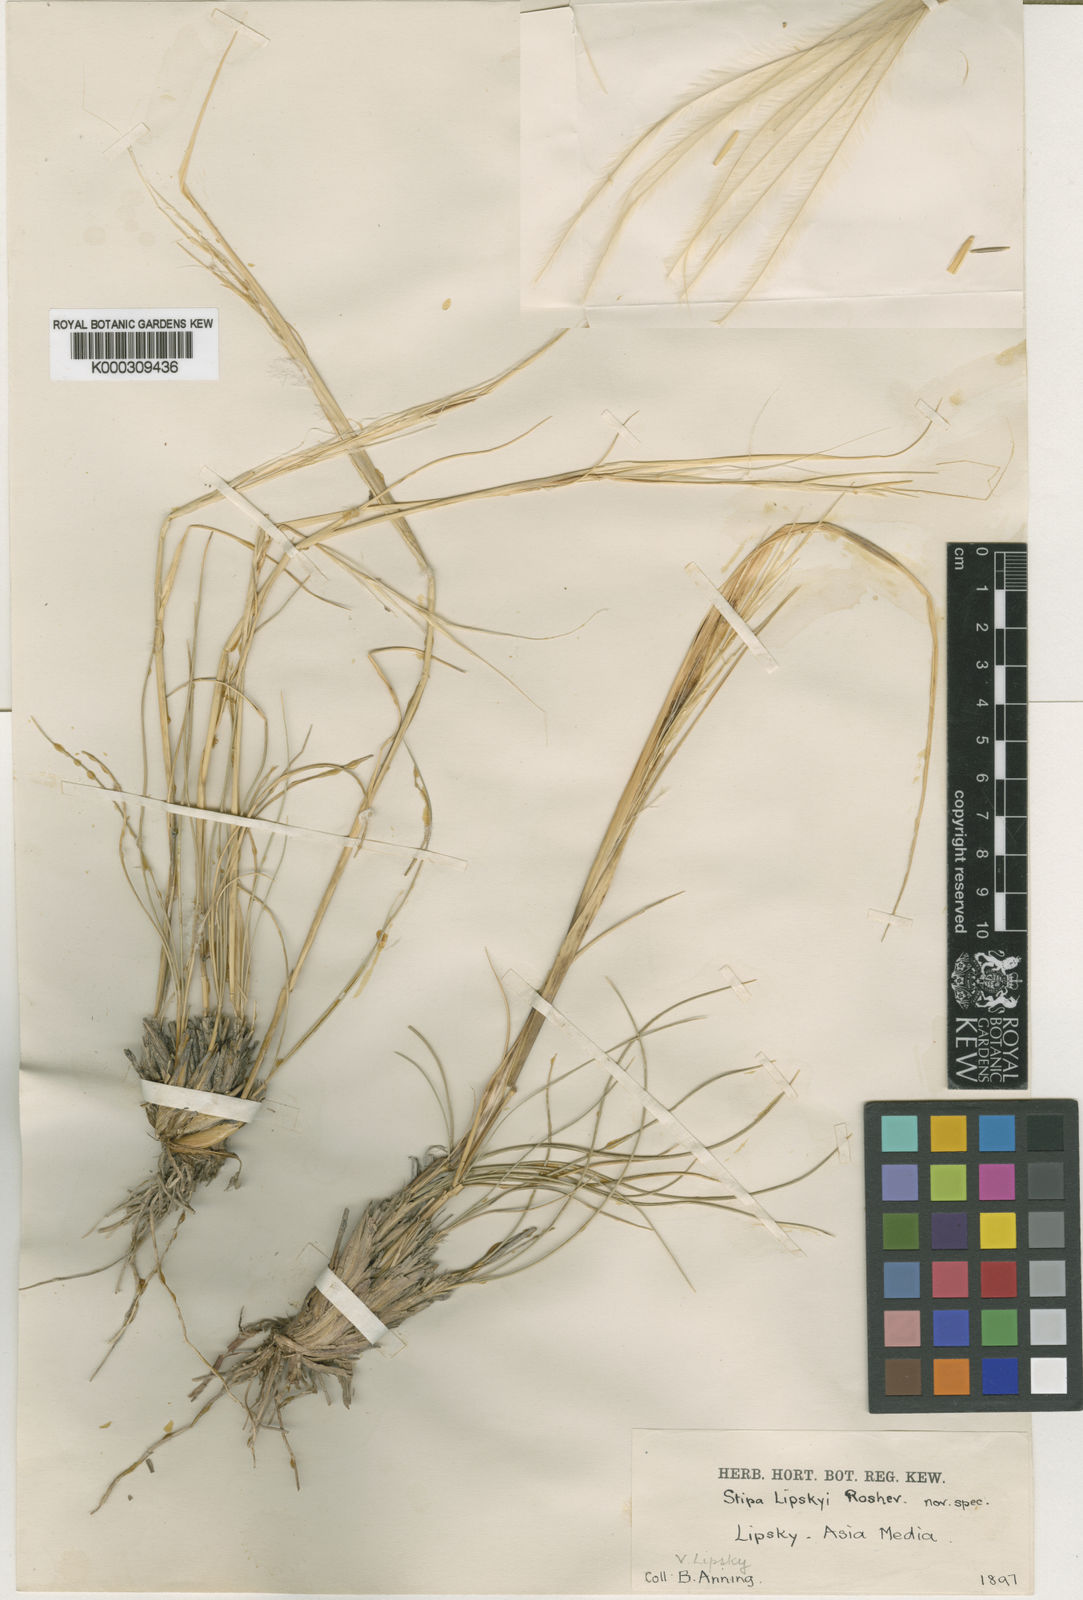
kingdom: Plantae
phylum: Tracheophyta
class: Liliopsida
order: Poales
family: Poaceae
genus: Stipa
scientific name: Stipa lipskyi
